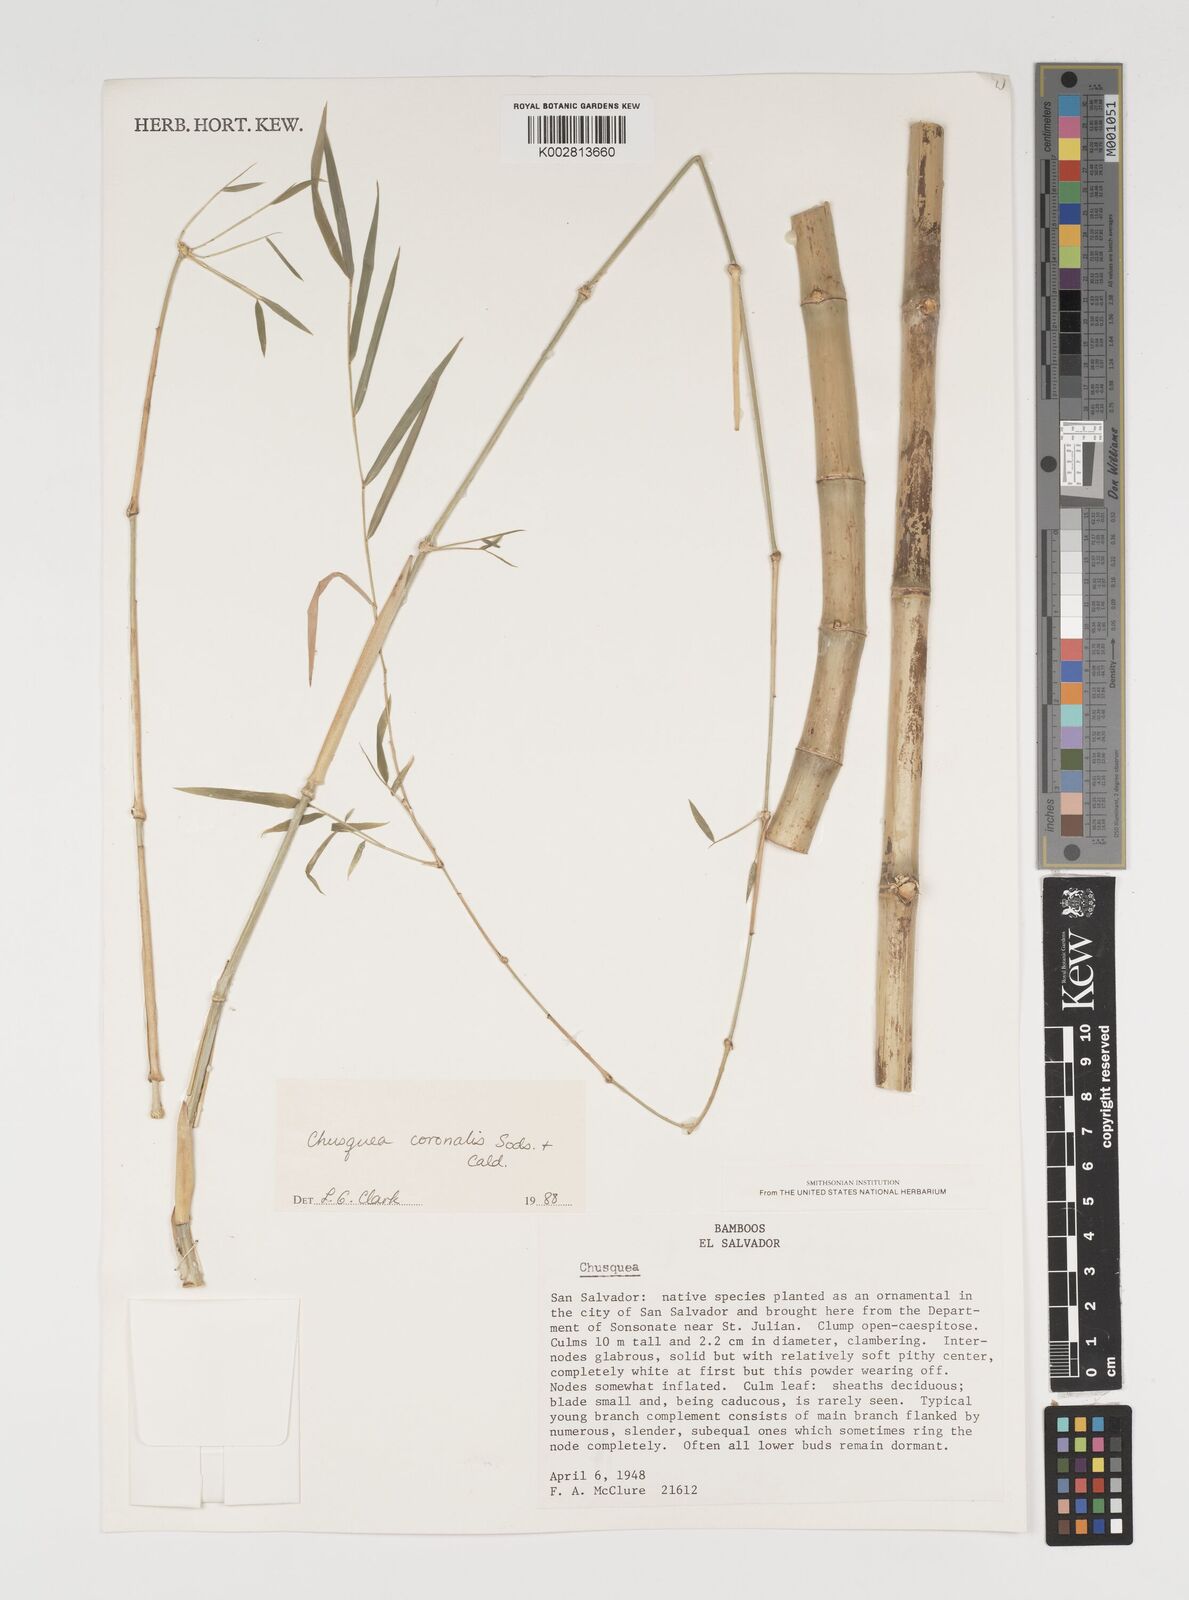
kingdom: Plantae
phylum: Tracheophyta
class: Liliopsida
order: Poales
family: Poaceae
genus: Chusquea
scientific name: Chusquea coronalis
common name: Machris bamboo
